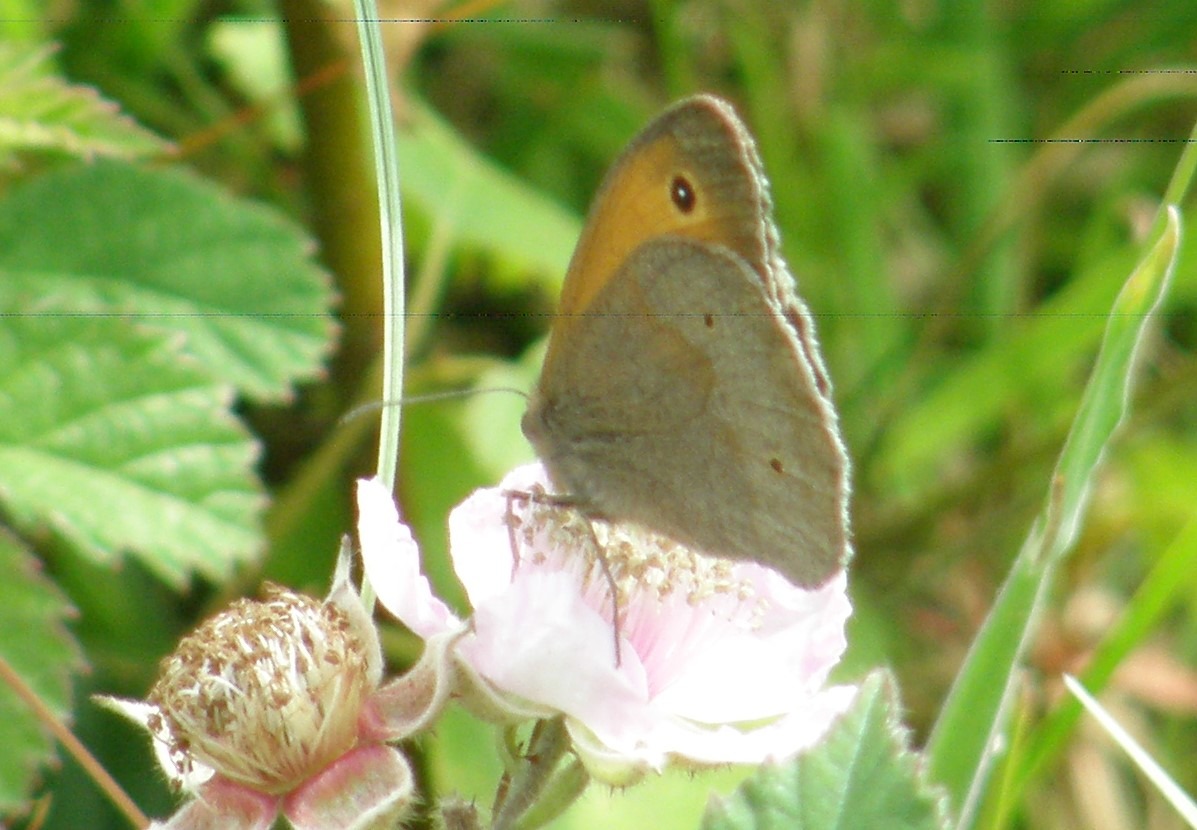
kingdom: Animalia
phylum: Arthropoda
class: Insecta
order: Lepidoptera
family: Nymphalidae
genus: Maniola
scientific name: Maniola jurtina
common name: Græsrandøje
